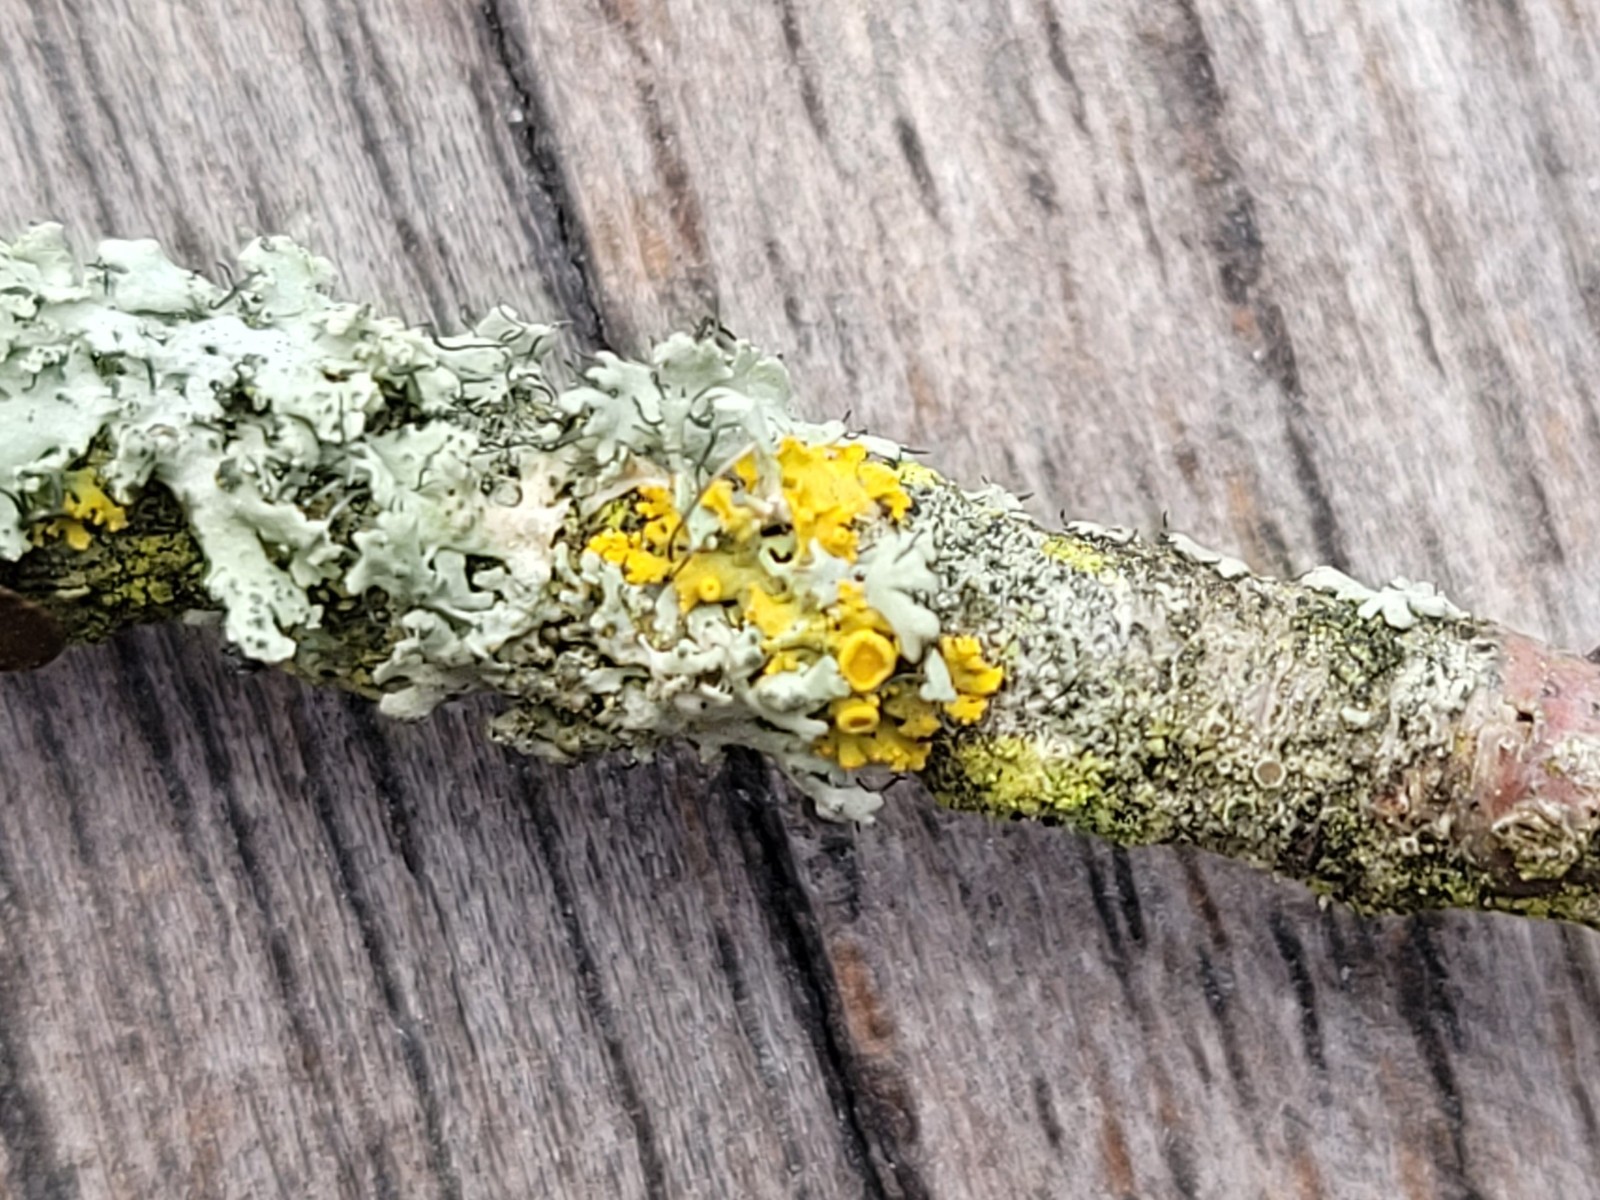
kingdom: Fungi
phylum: Ascomycota
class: Lecanoromycetes
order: Teloschistales
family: Teloschistaceae
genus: Polycauliona
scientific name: Polycauliona polycarpa
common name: mangefrugtet orangelav
